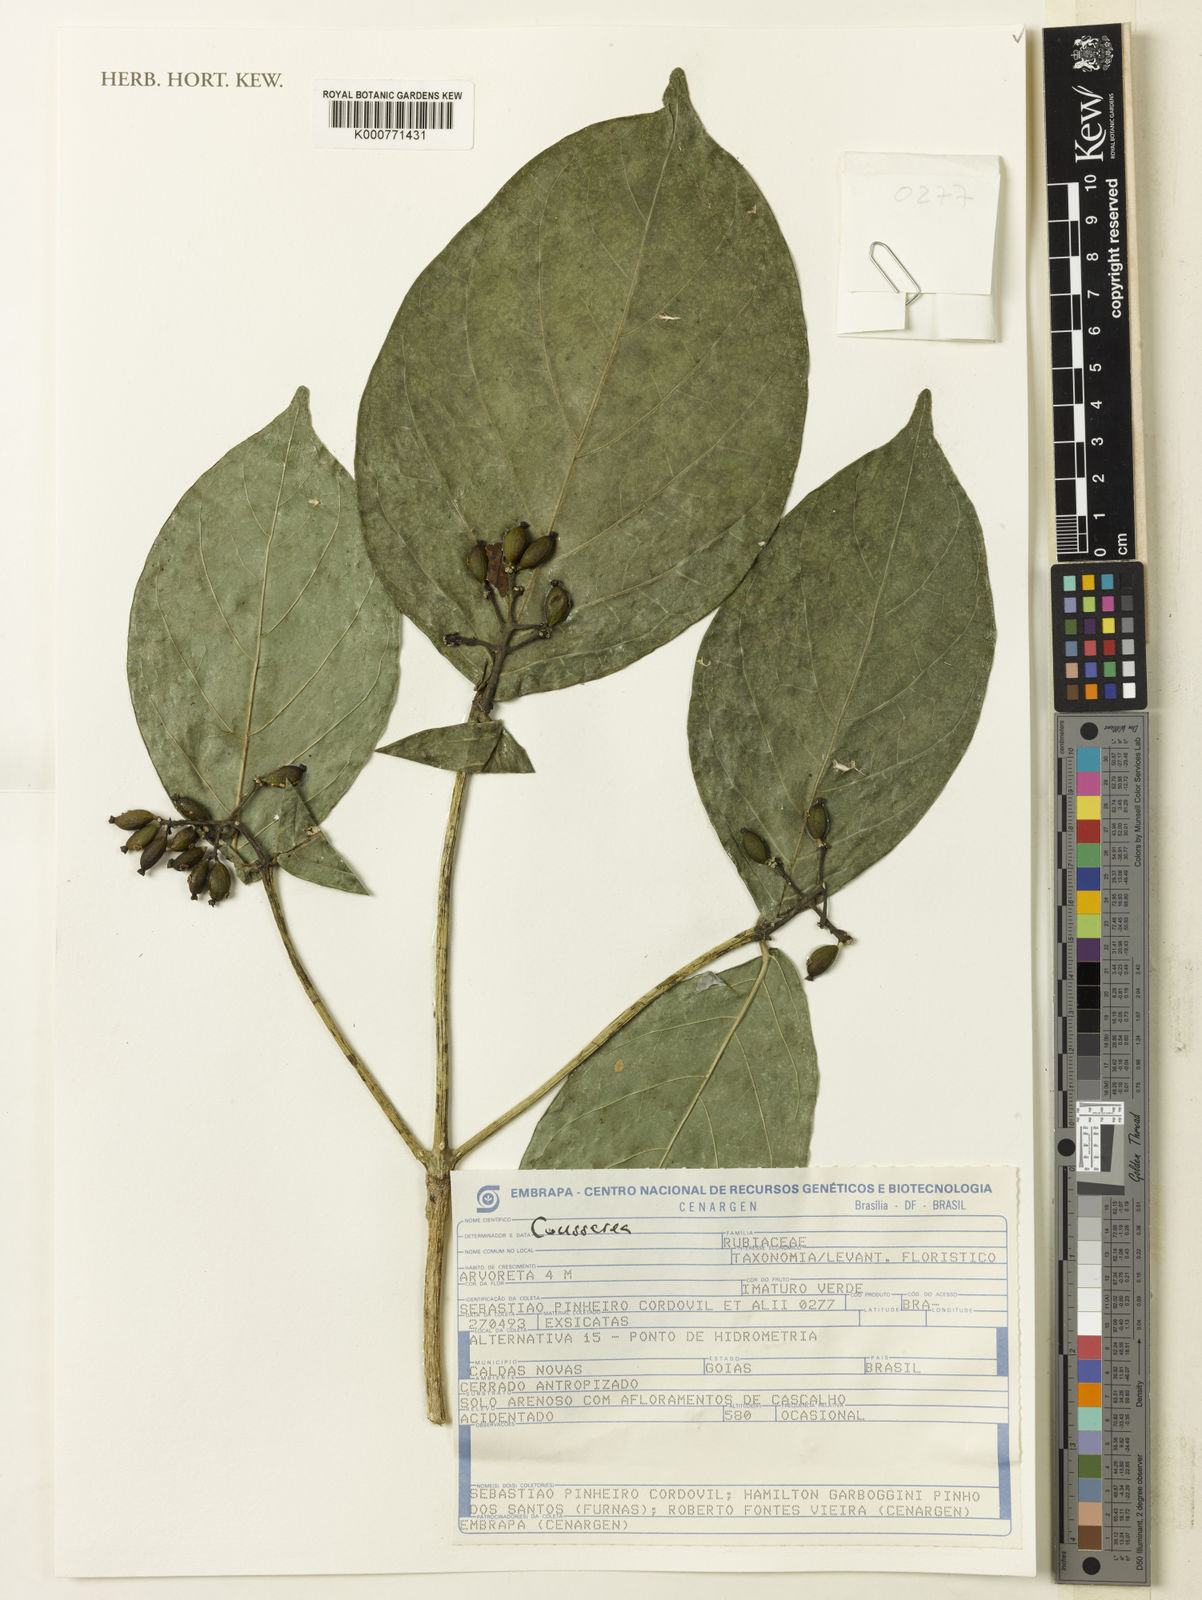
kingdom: Plantae
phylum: Tracheophyta
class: Magnoliopsida
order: Gentianales
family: Rubiaceae
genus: Coussarea
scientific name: Coussarea
